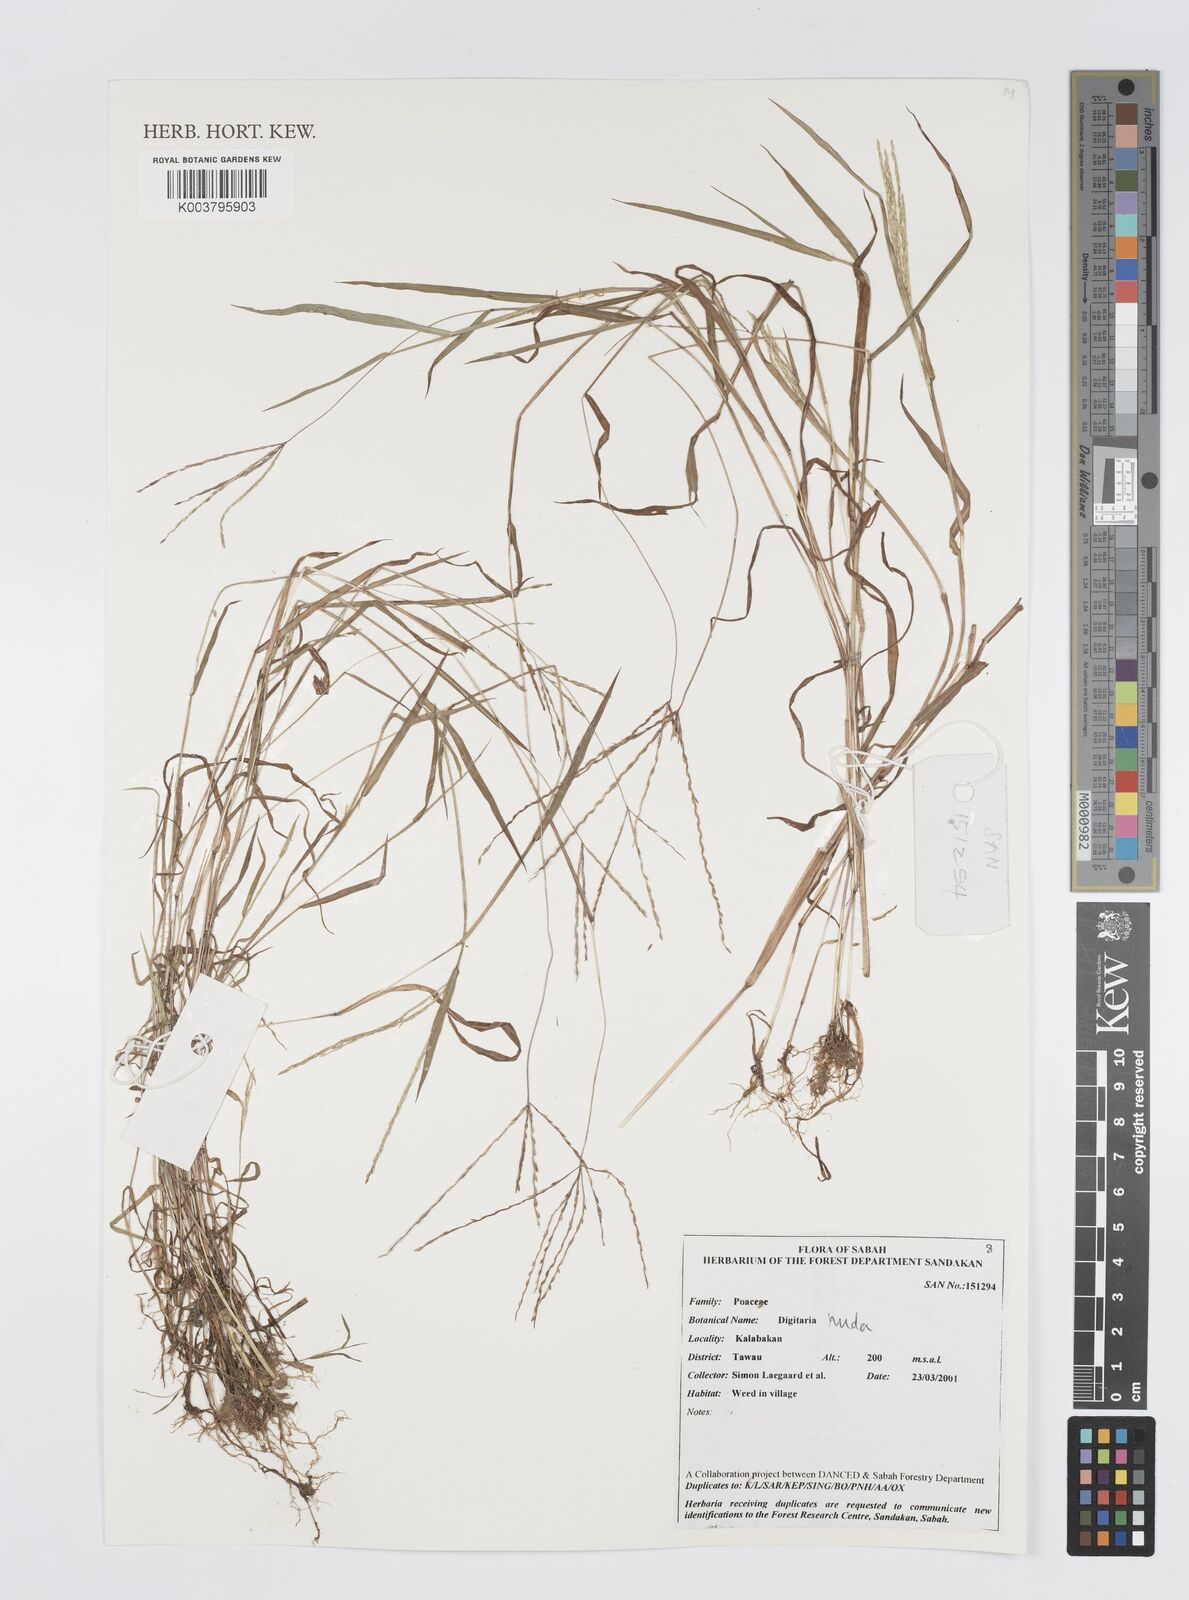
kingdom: Plantae
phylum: Tracheophyta
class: Liliopsida
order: Poales
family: Poaceae
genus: Digitaria
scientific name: Digitaria nuda
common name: Naked crabgrass
